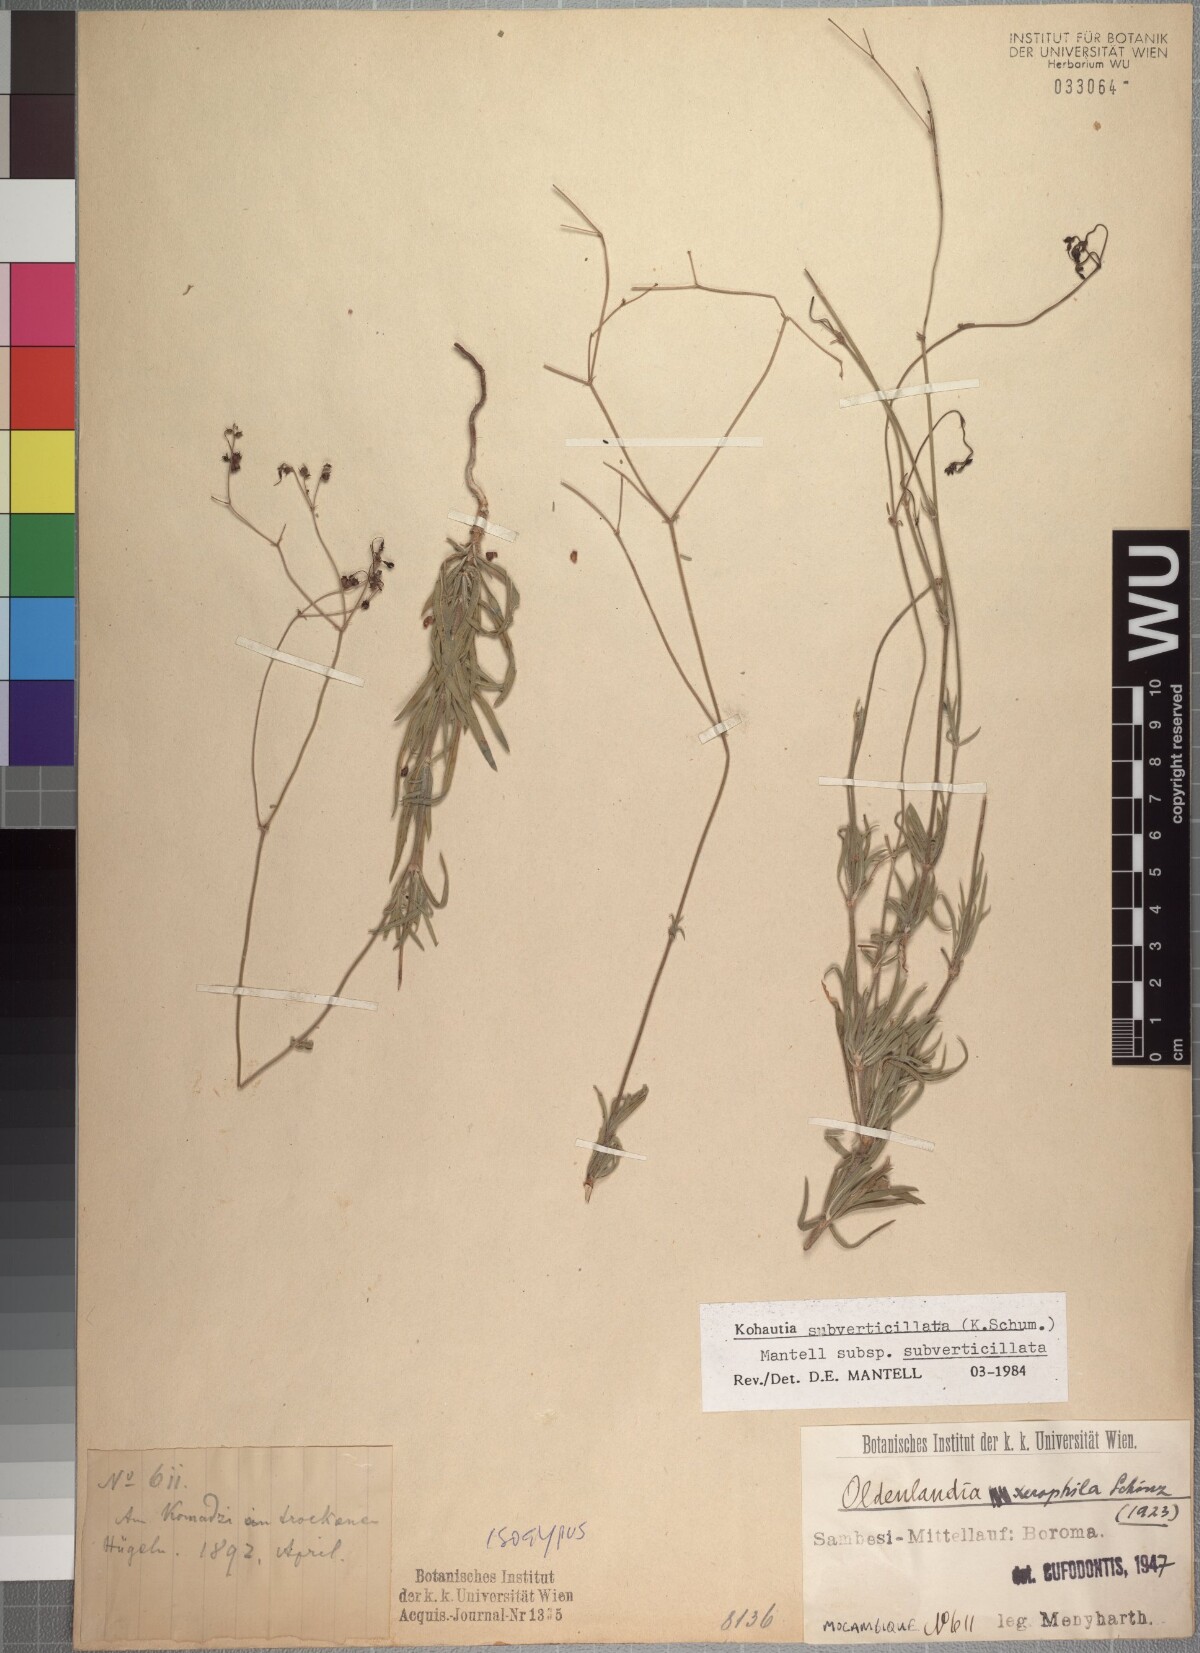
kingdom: Plantae
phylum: Tracheophyta
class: Magnoliopsida
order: Gentianales
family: Rubiaceae
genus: Kohautia
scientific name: Kohautia subverticillata
